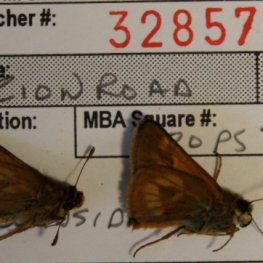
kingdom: Animalia
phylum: Arthropoda
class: Insecta
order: Lepidoptera
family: Hesperiidae
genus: Polites
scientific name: Polites
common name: Long Dash Skipper
